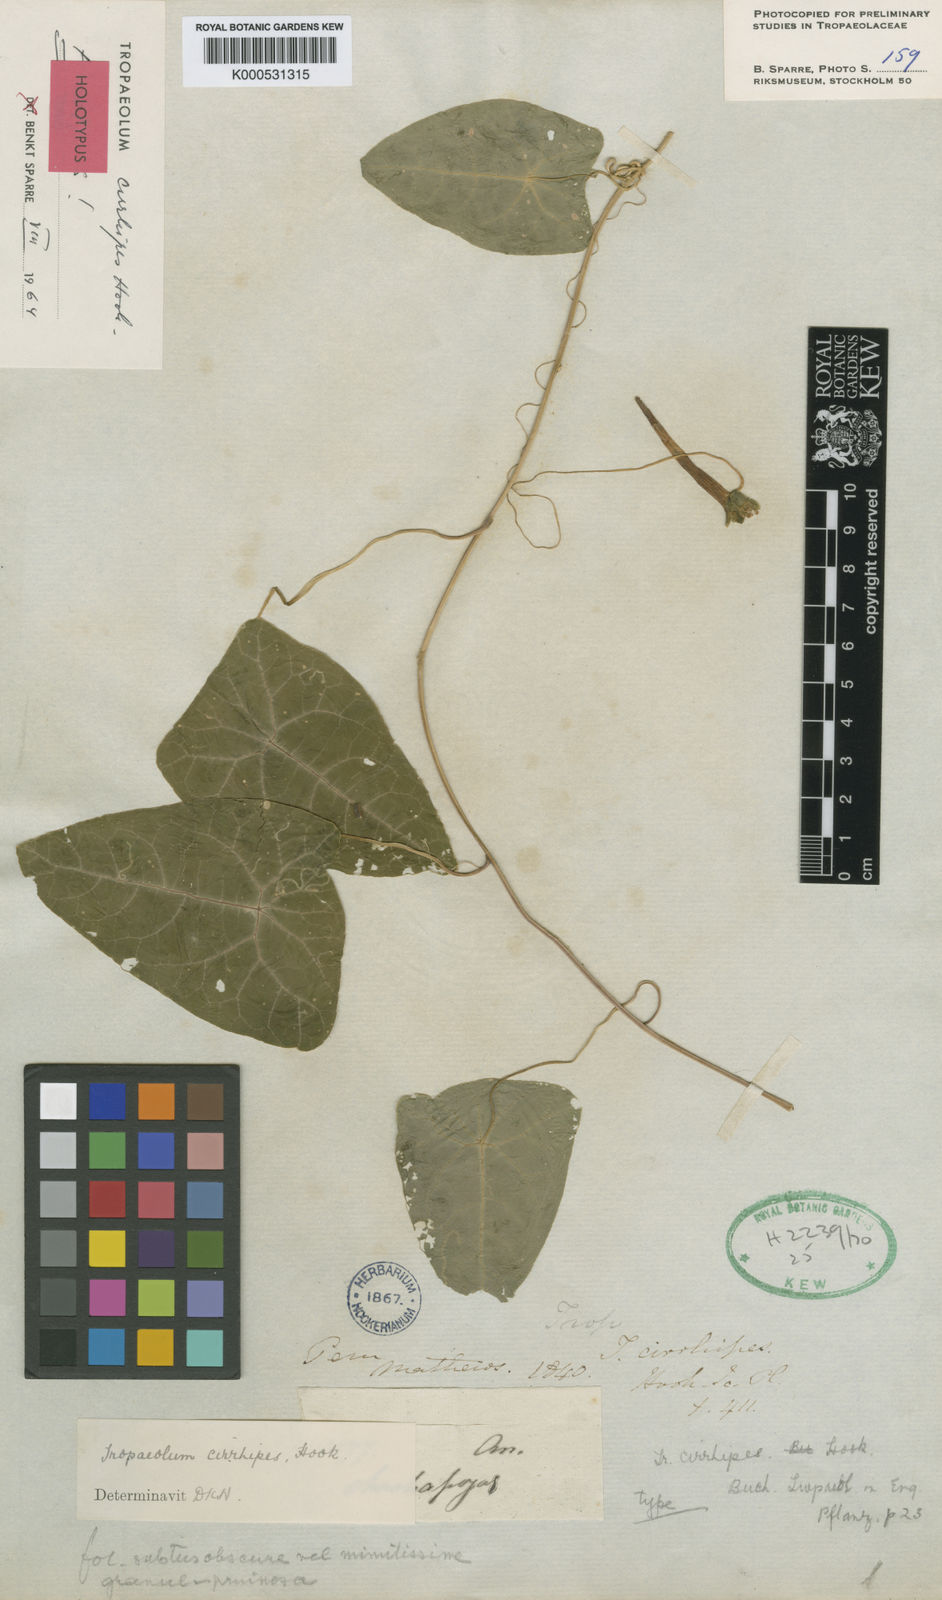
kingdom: Plantae
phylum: Tracheophyta
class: Magnoliopsida
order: Brassicales
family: Tropaeolaceae
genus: Tropaeolum
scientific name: Tropaeolum cirrhipes
